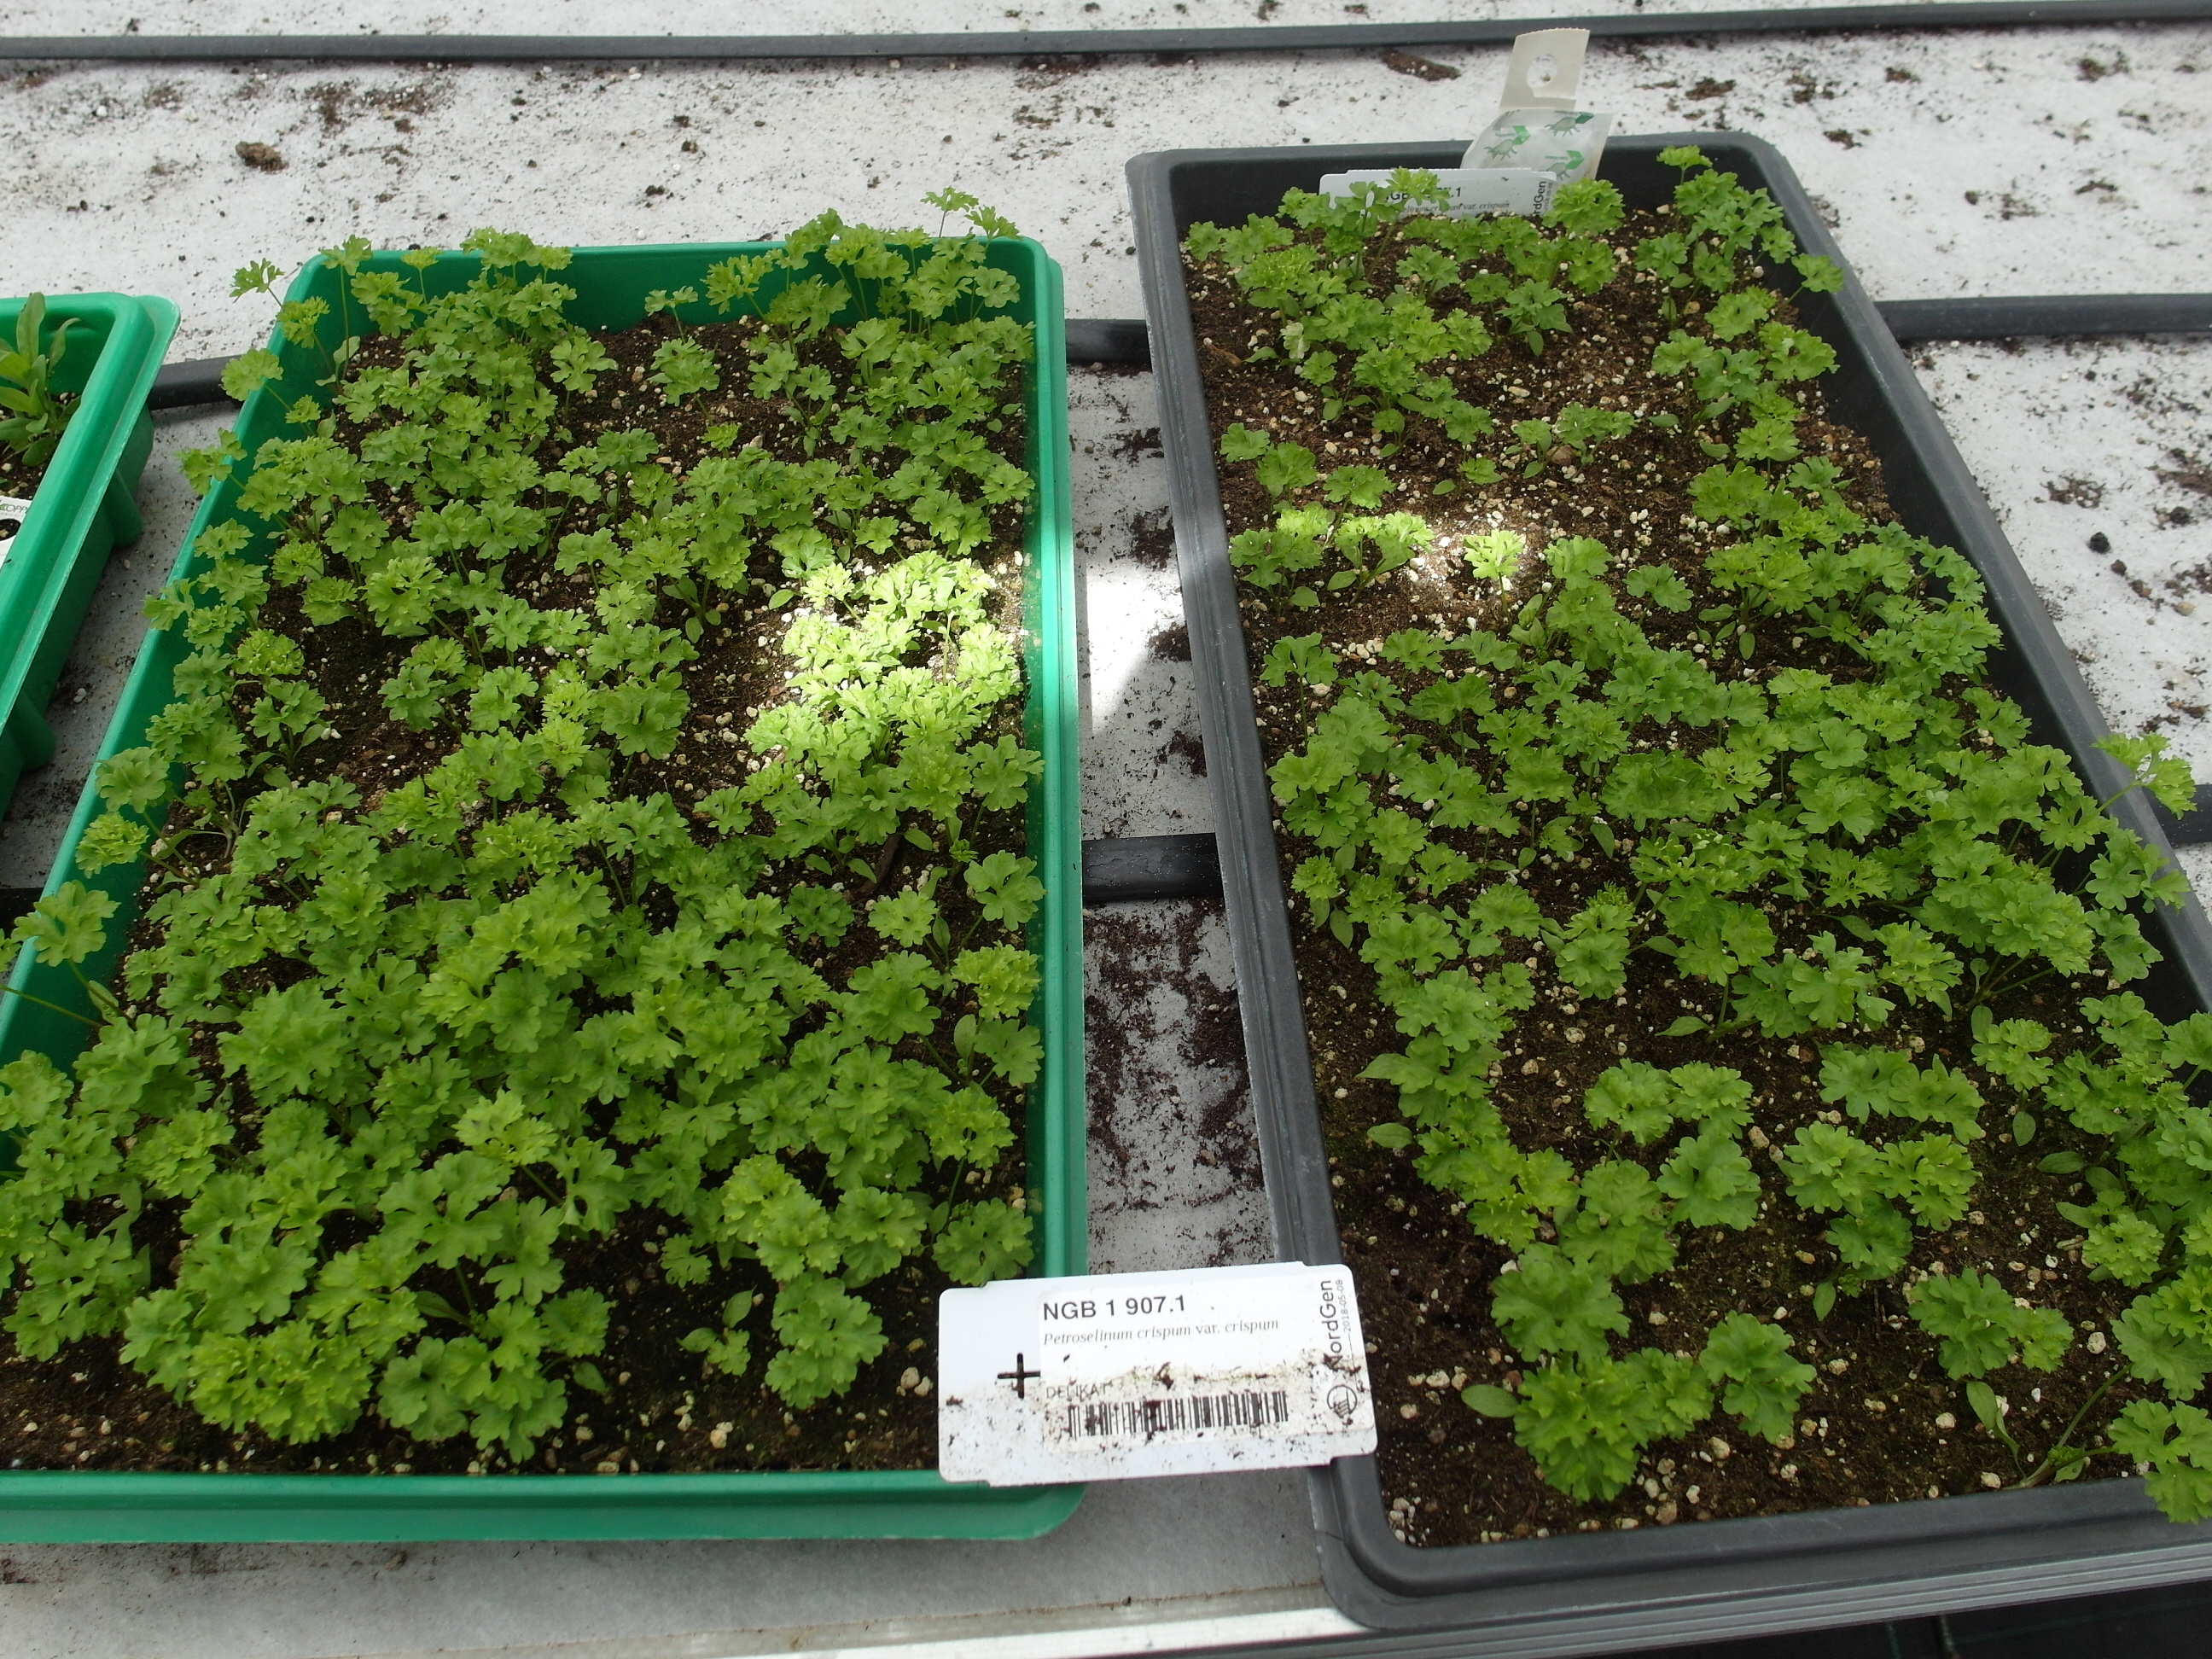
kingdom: Plantae
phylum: Tracheophyta
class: Magnoliopsida
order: Apiales
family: Apiaceae
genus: Petroselinum
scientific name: Petroselinum crispum
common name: Parsley
